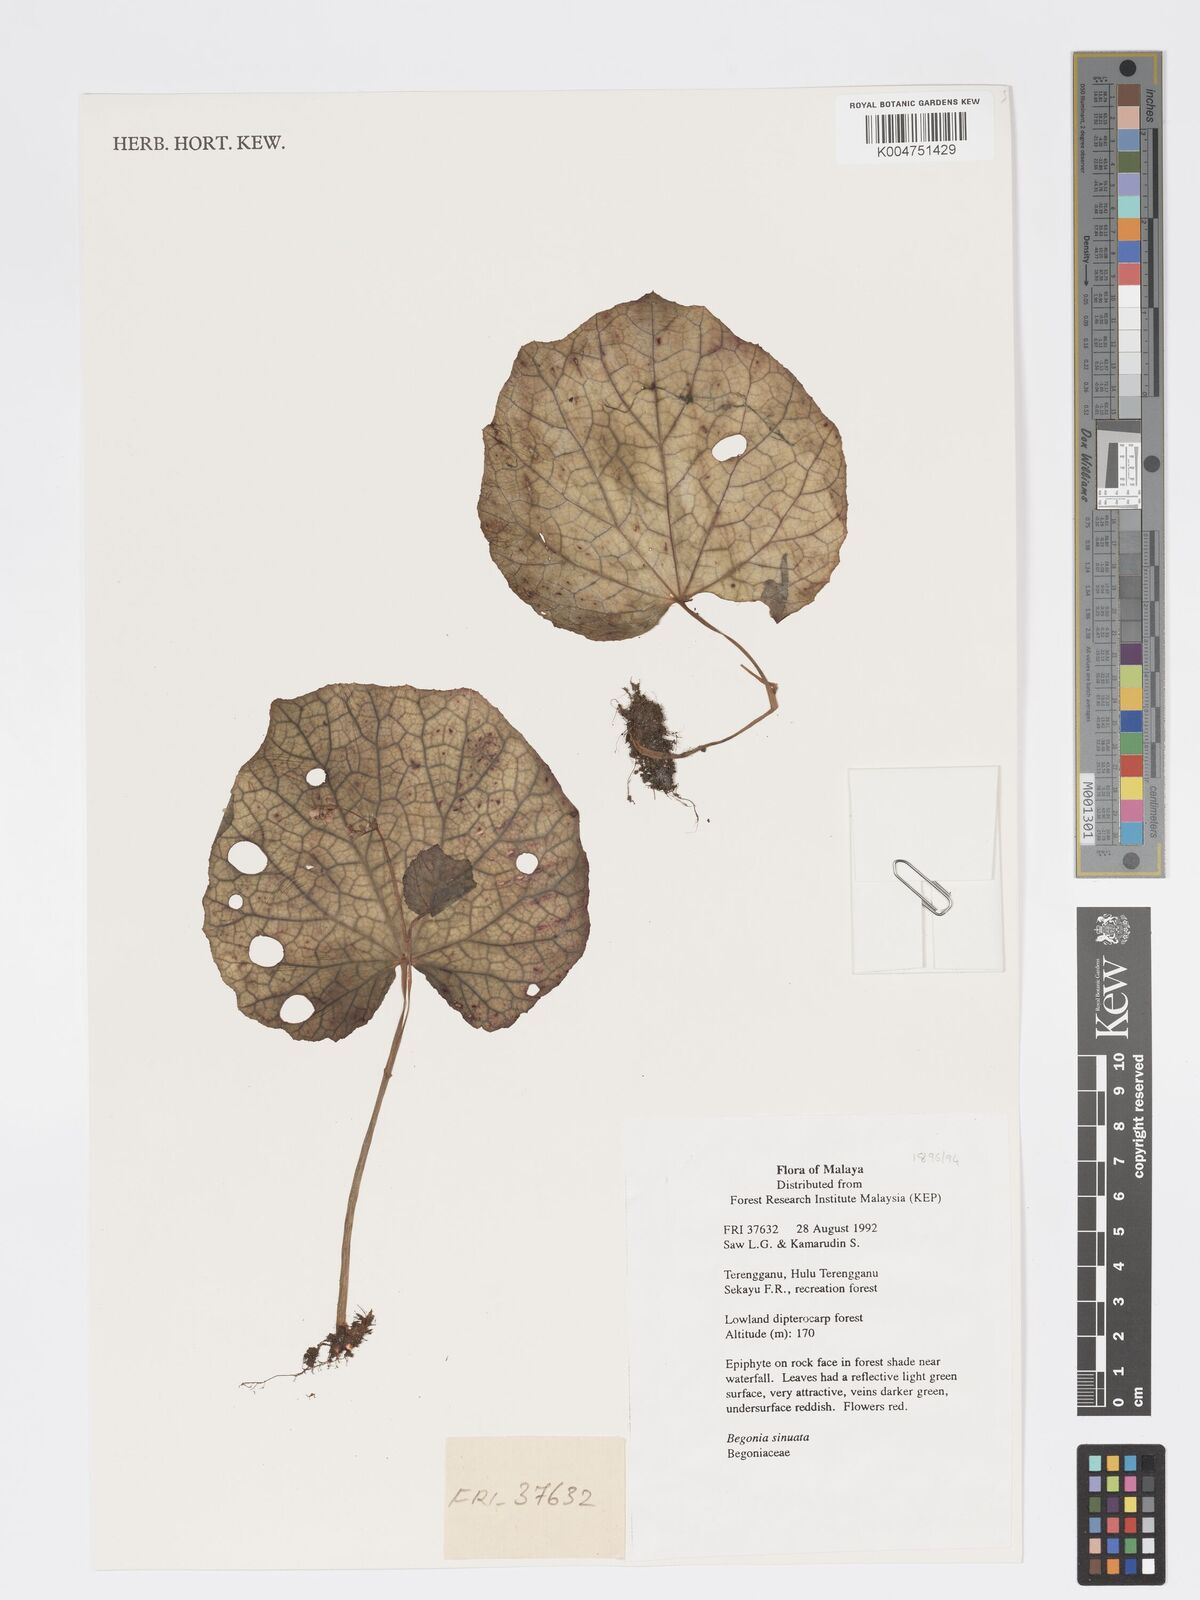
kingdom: Plantae
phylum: Tracheophyta
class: Magnoliopsida
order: Cucurbitales
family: Begoniaceae
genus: Begonia
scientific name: Begonia
